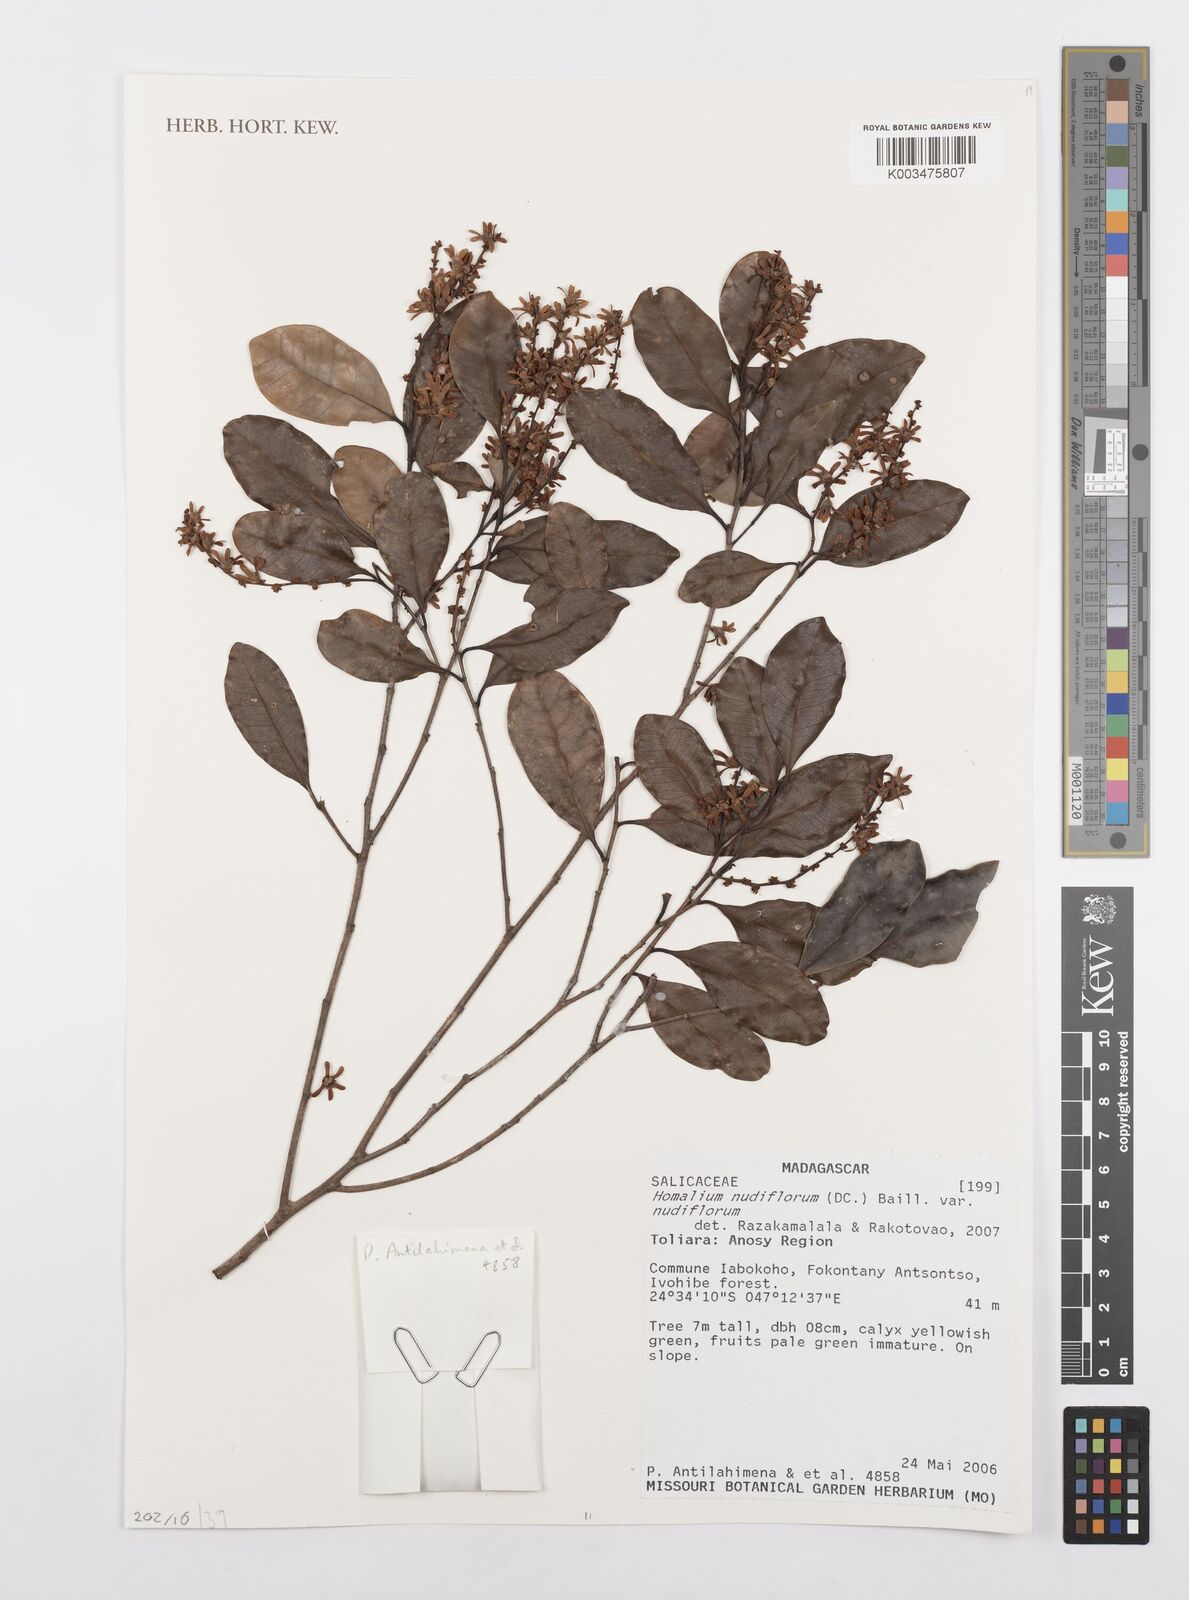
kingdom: Plantae
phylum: Tracheophyta
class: Magnoliopsida
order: Malpighiales
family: Salicaceae
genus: Homalium
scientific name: Homalium nudiflorum
